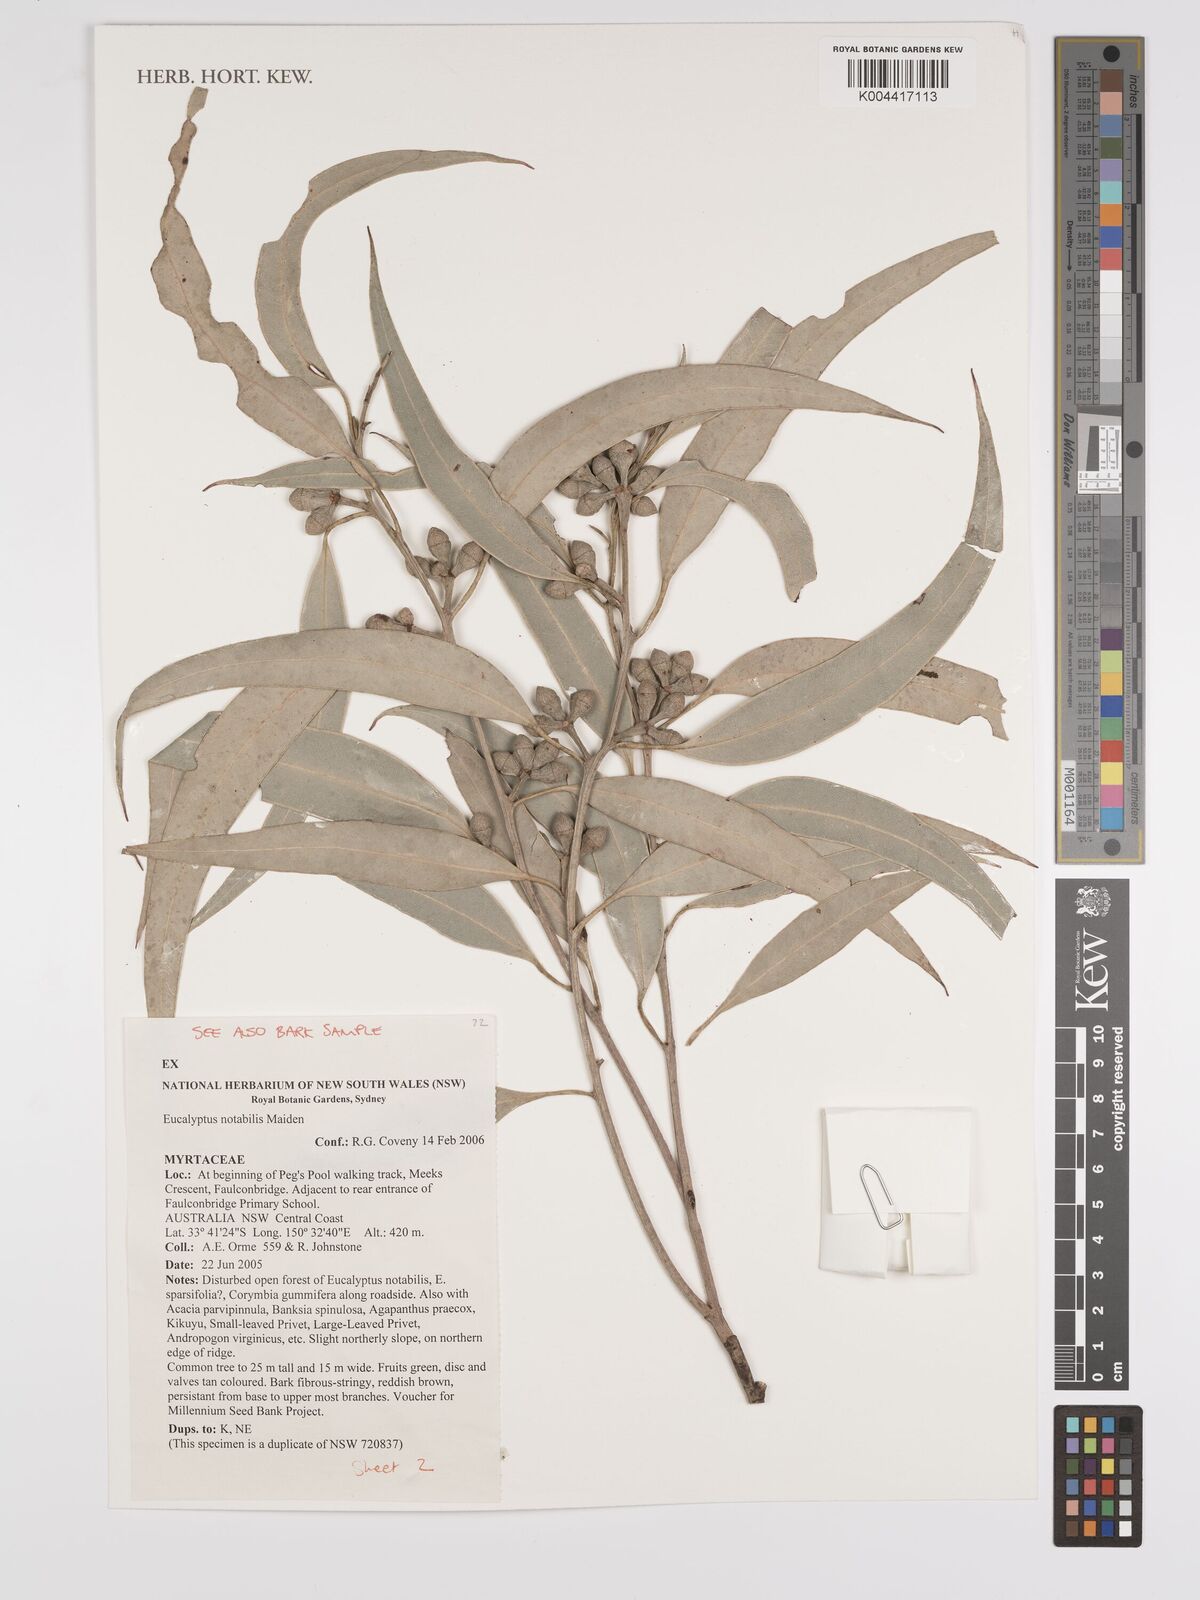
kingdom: Plantae
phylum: Tracheophyta
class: Magnoliopsida
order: Myrtales
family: Myrtaceae
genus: Eucalyptus
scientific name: Eucalyptus notabilis
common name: Blue mountains-mahogany
